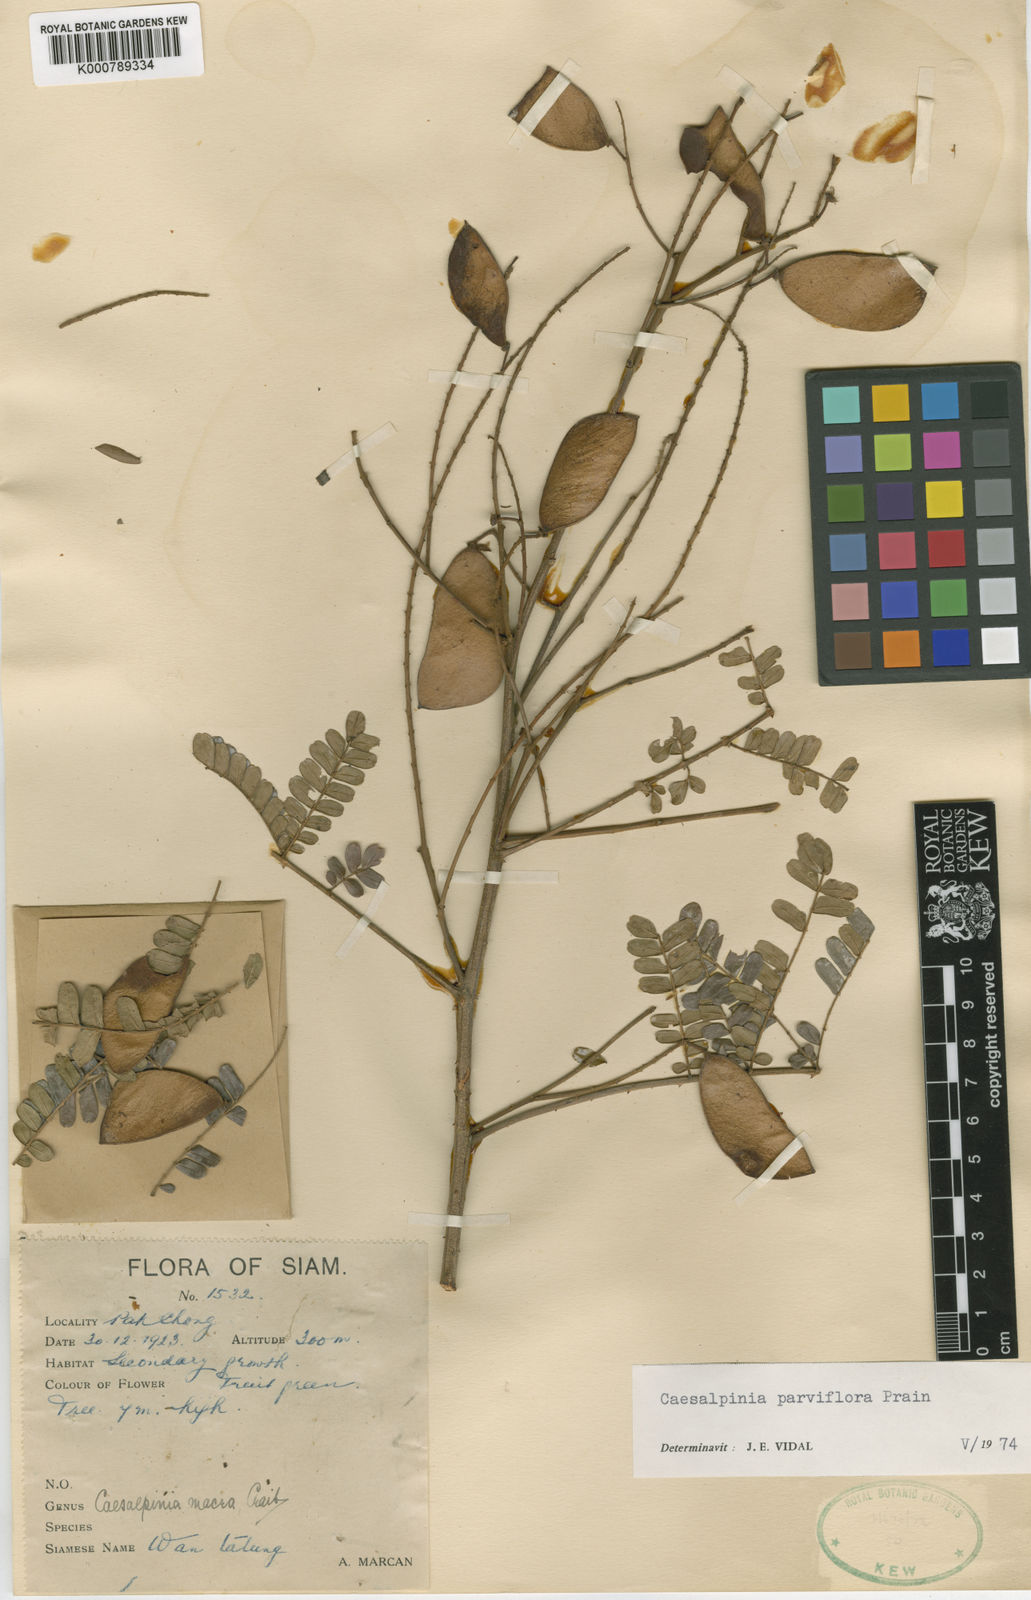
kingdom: Plantae
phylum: Tracheophyta
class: Magnoliopsida
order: Fabales
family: Fabaceae
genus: Caesalpinia
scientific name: Caesalpinia
